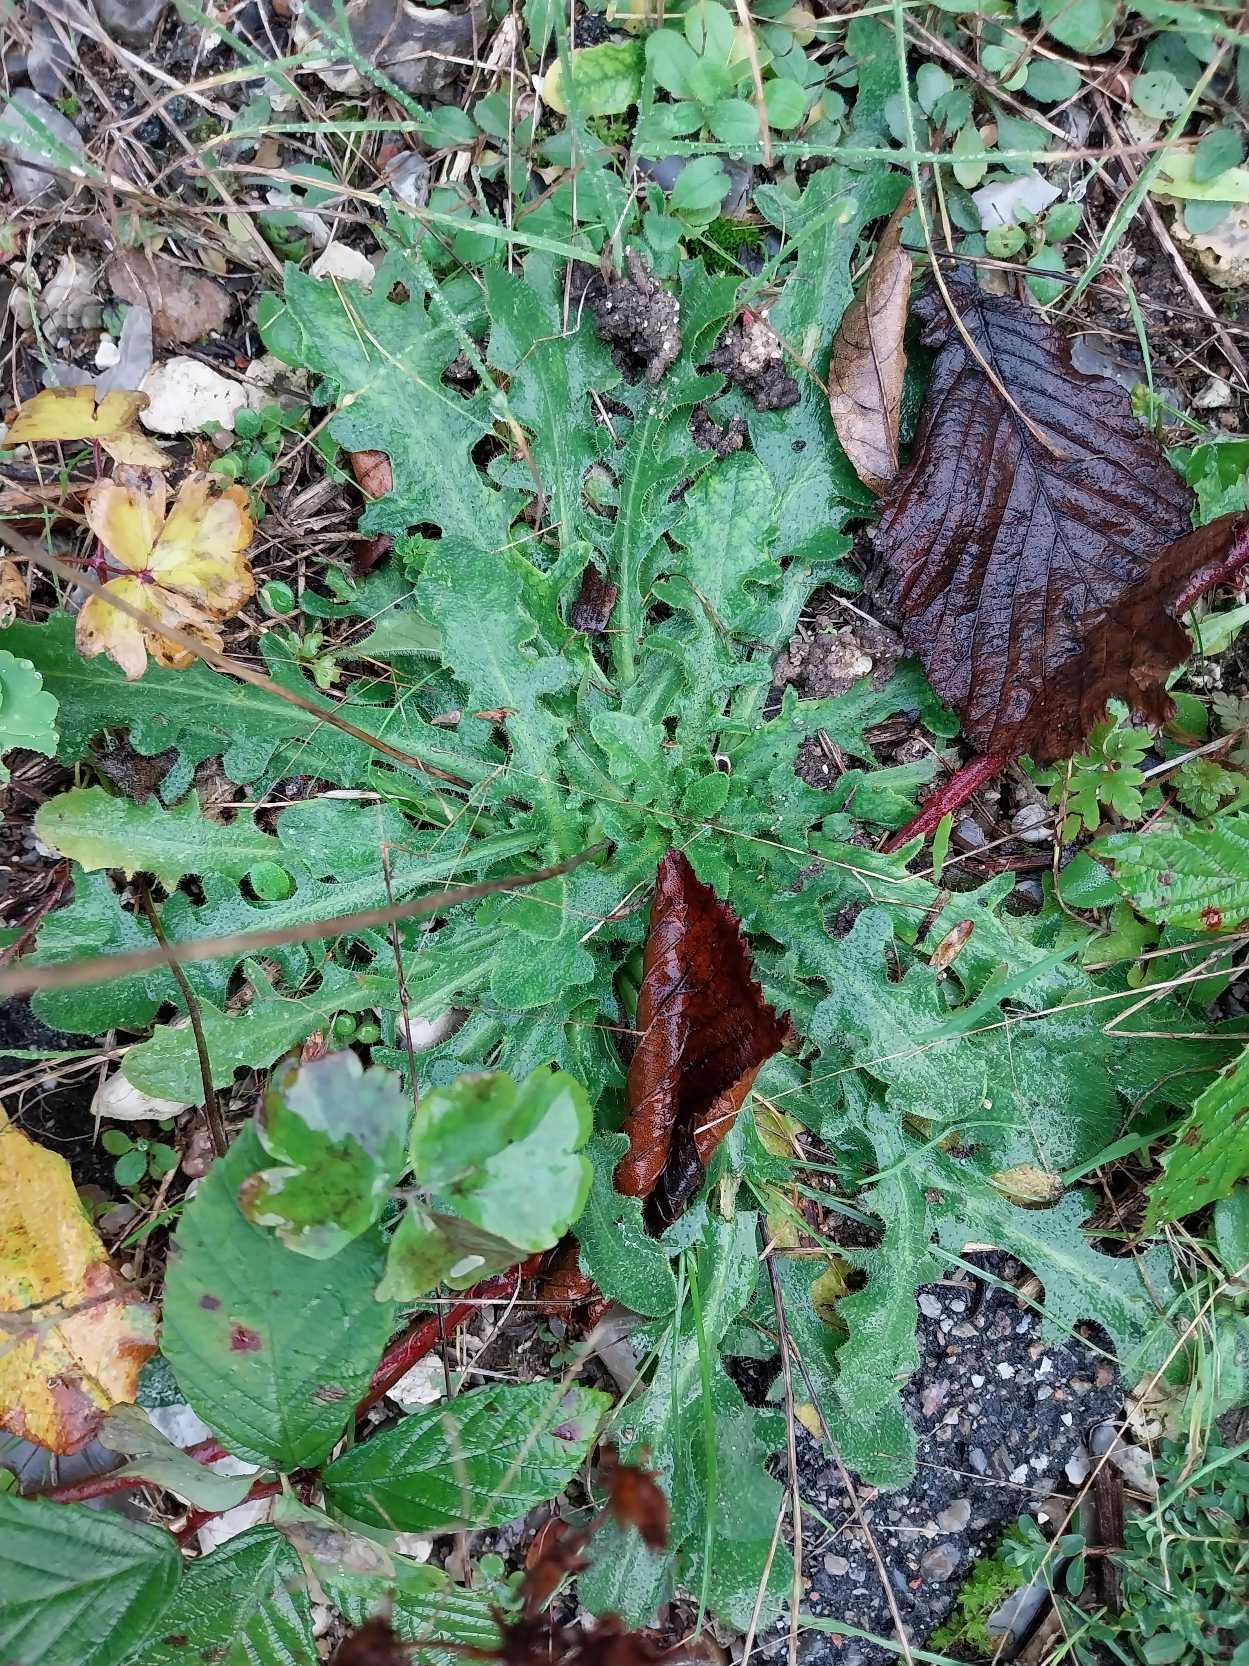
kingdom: Plantae
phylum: Tracheophyta
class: Magnoliopsida
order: Asterales
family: Asteraceae
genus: Hypochaeris
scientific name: Hypochaeris radicata
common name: Almindelig kongepen
